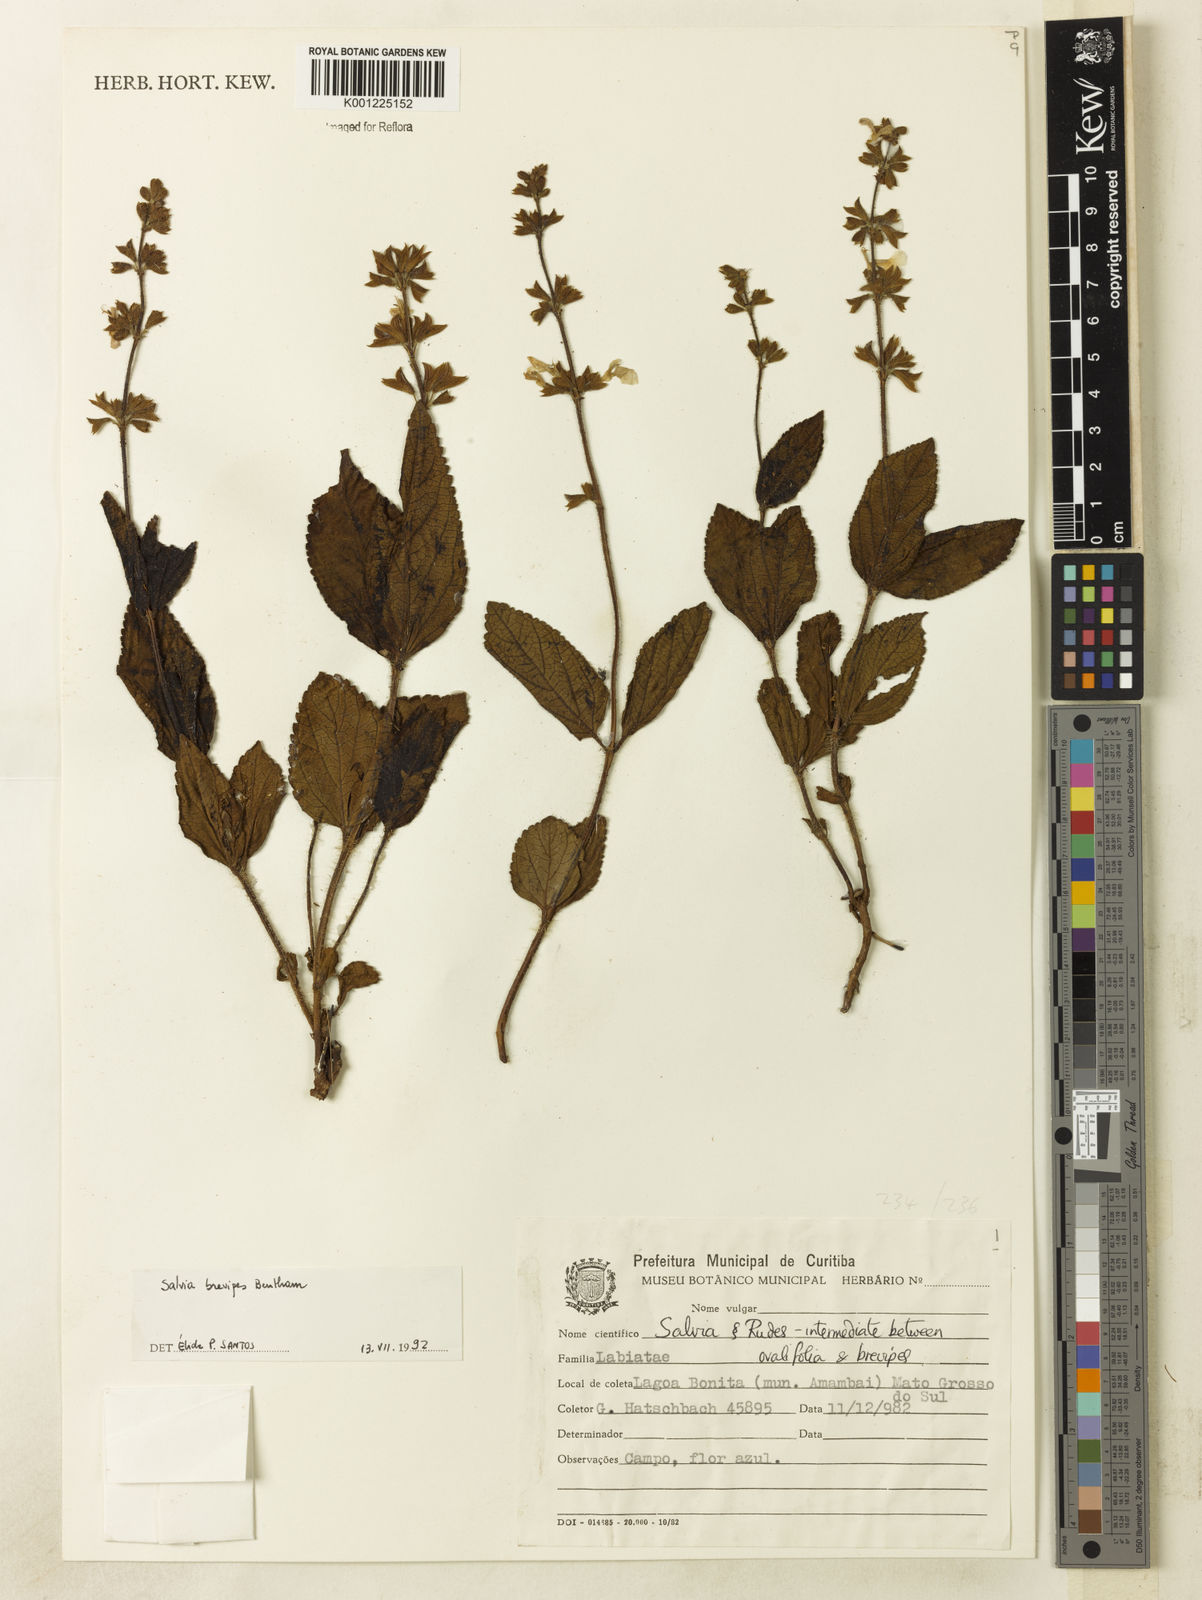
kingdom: Plantae
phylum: Tracheophyta
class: Magnoliopsida
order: Lamiales
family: Lamiaceae
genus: Salvia
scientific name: Salvia brevipes
